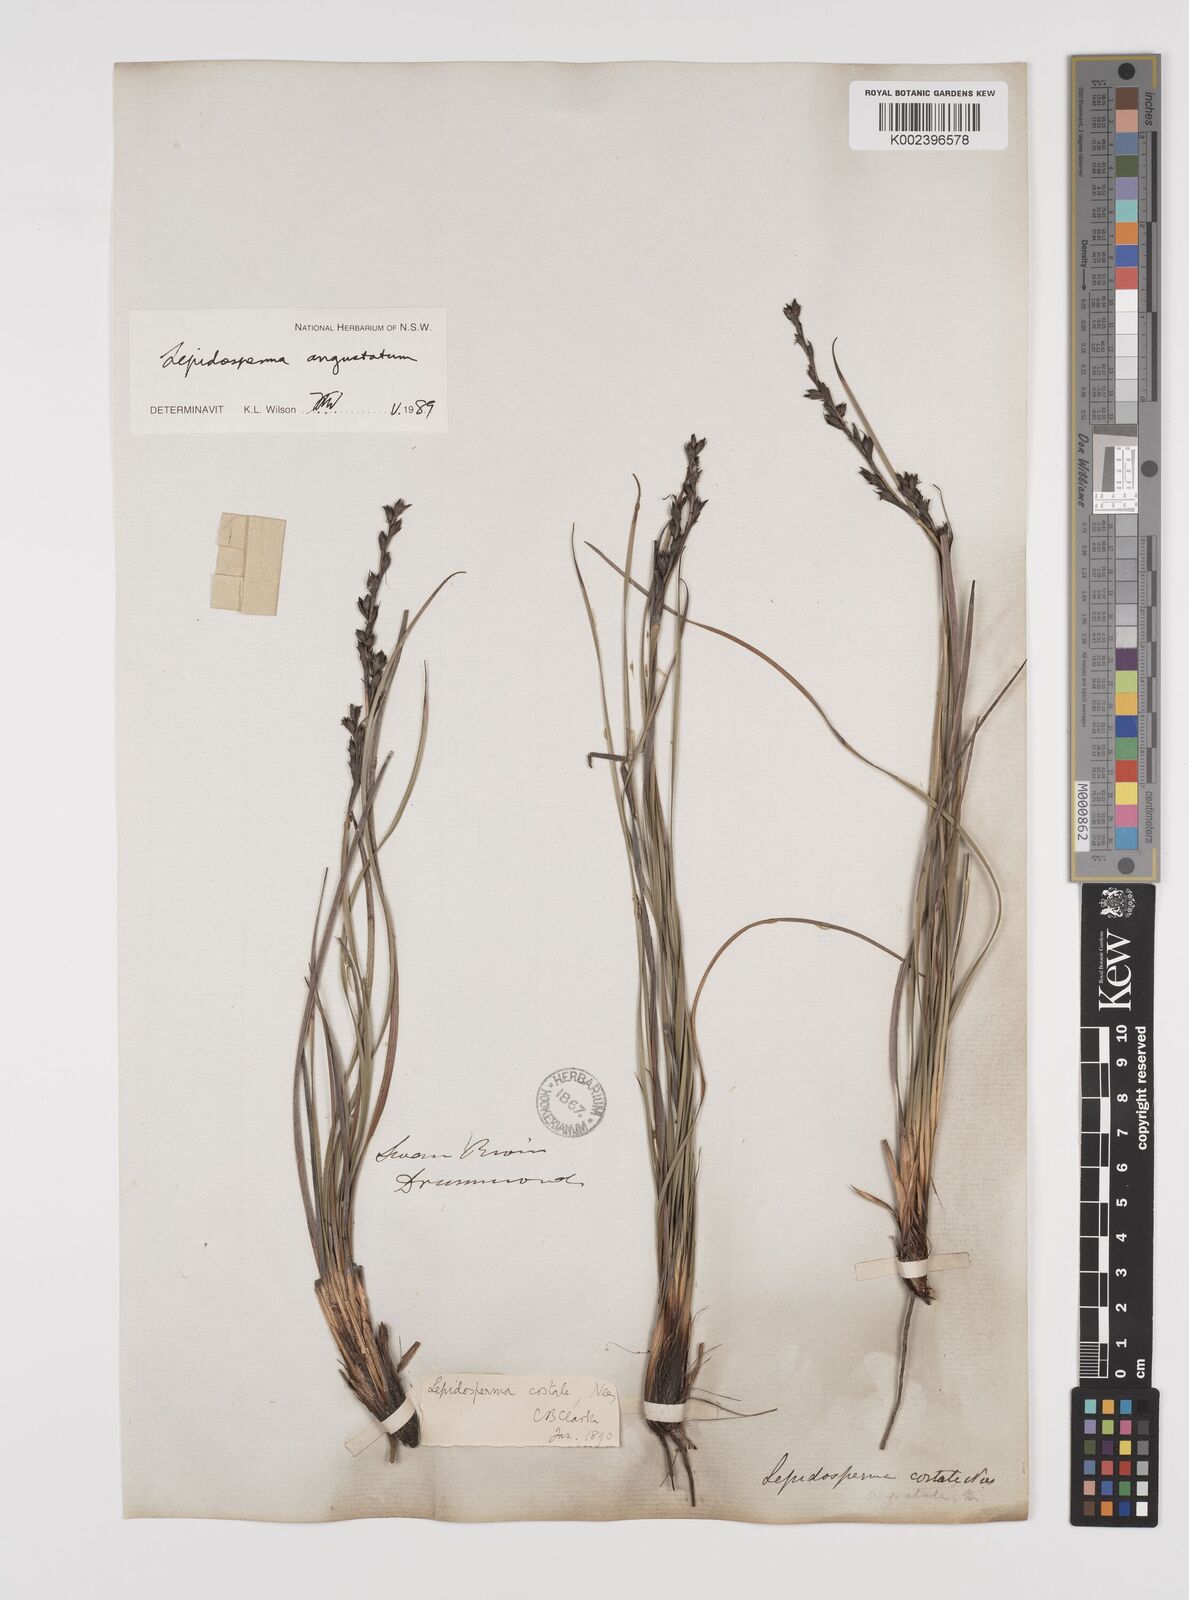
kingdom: Plantae
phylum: Tracheophyta
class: Liliopsida
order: Poales
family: Cyperaceae
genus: Lepidosperma
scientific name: Lepidosperma angustatum
